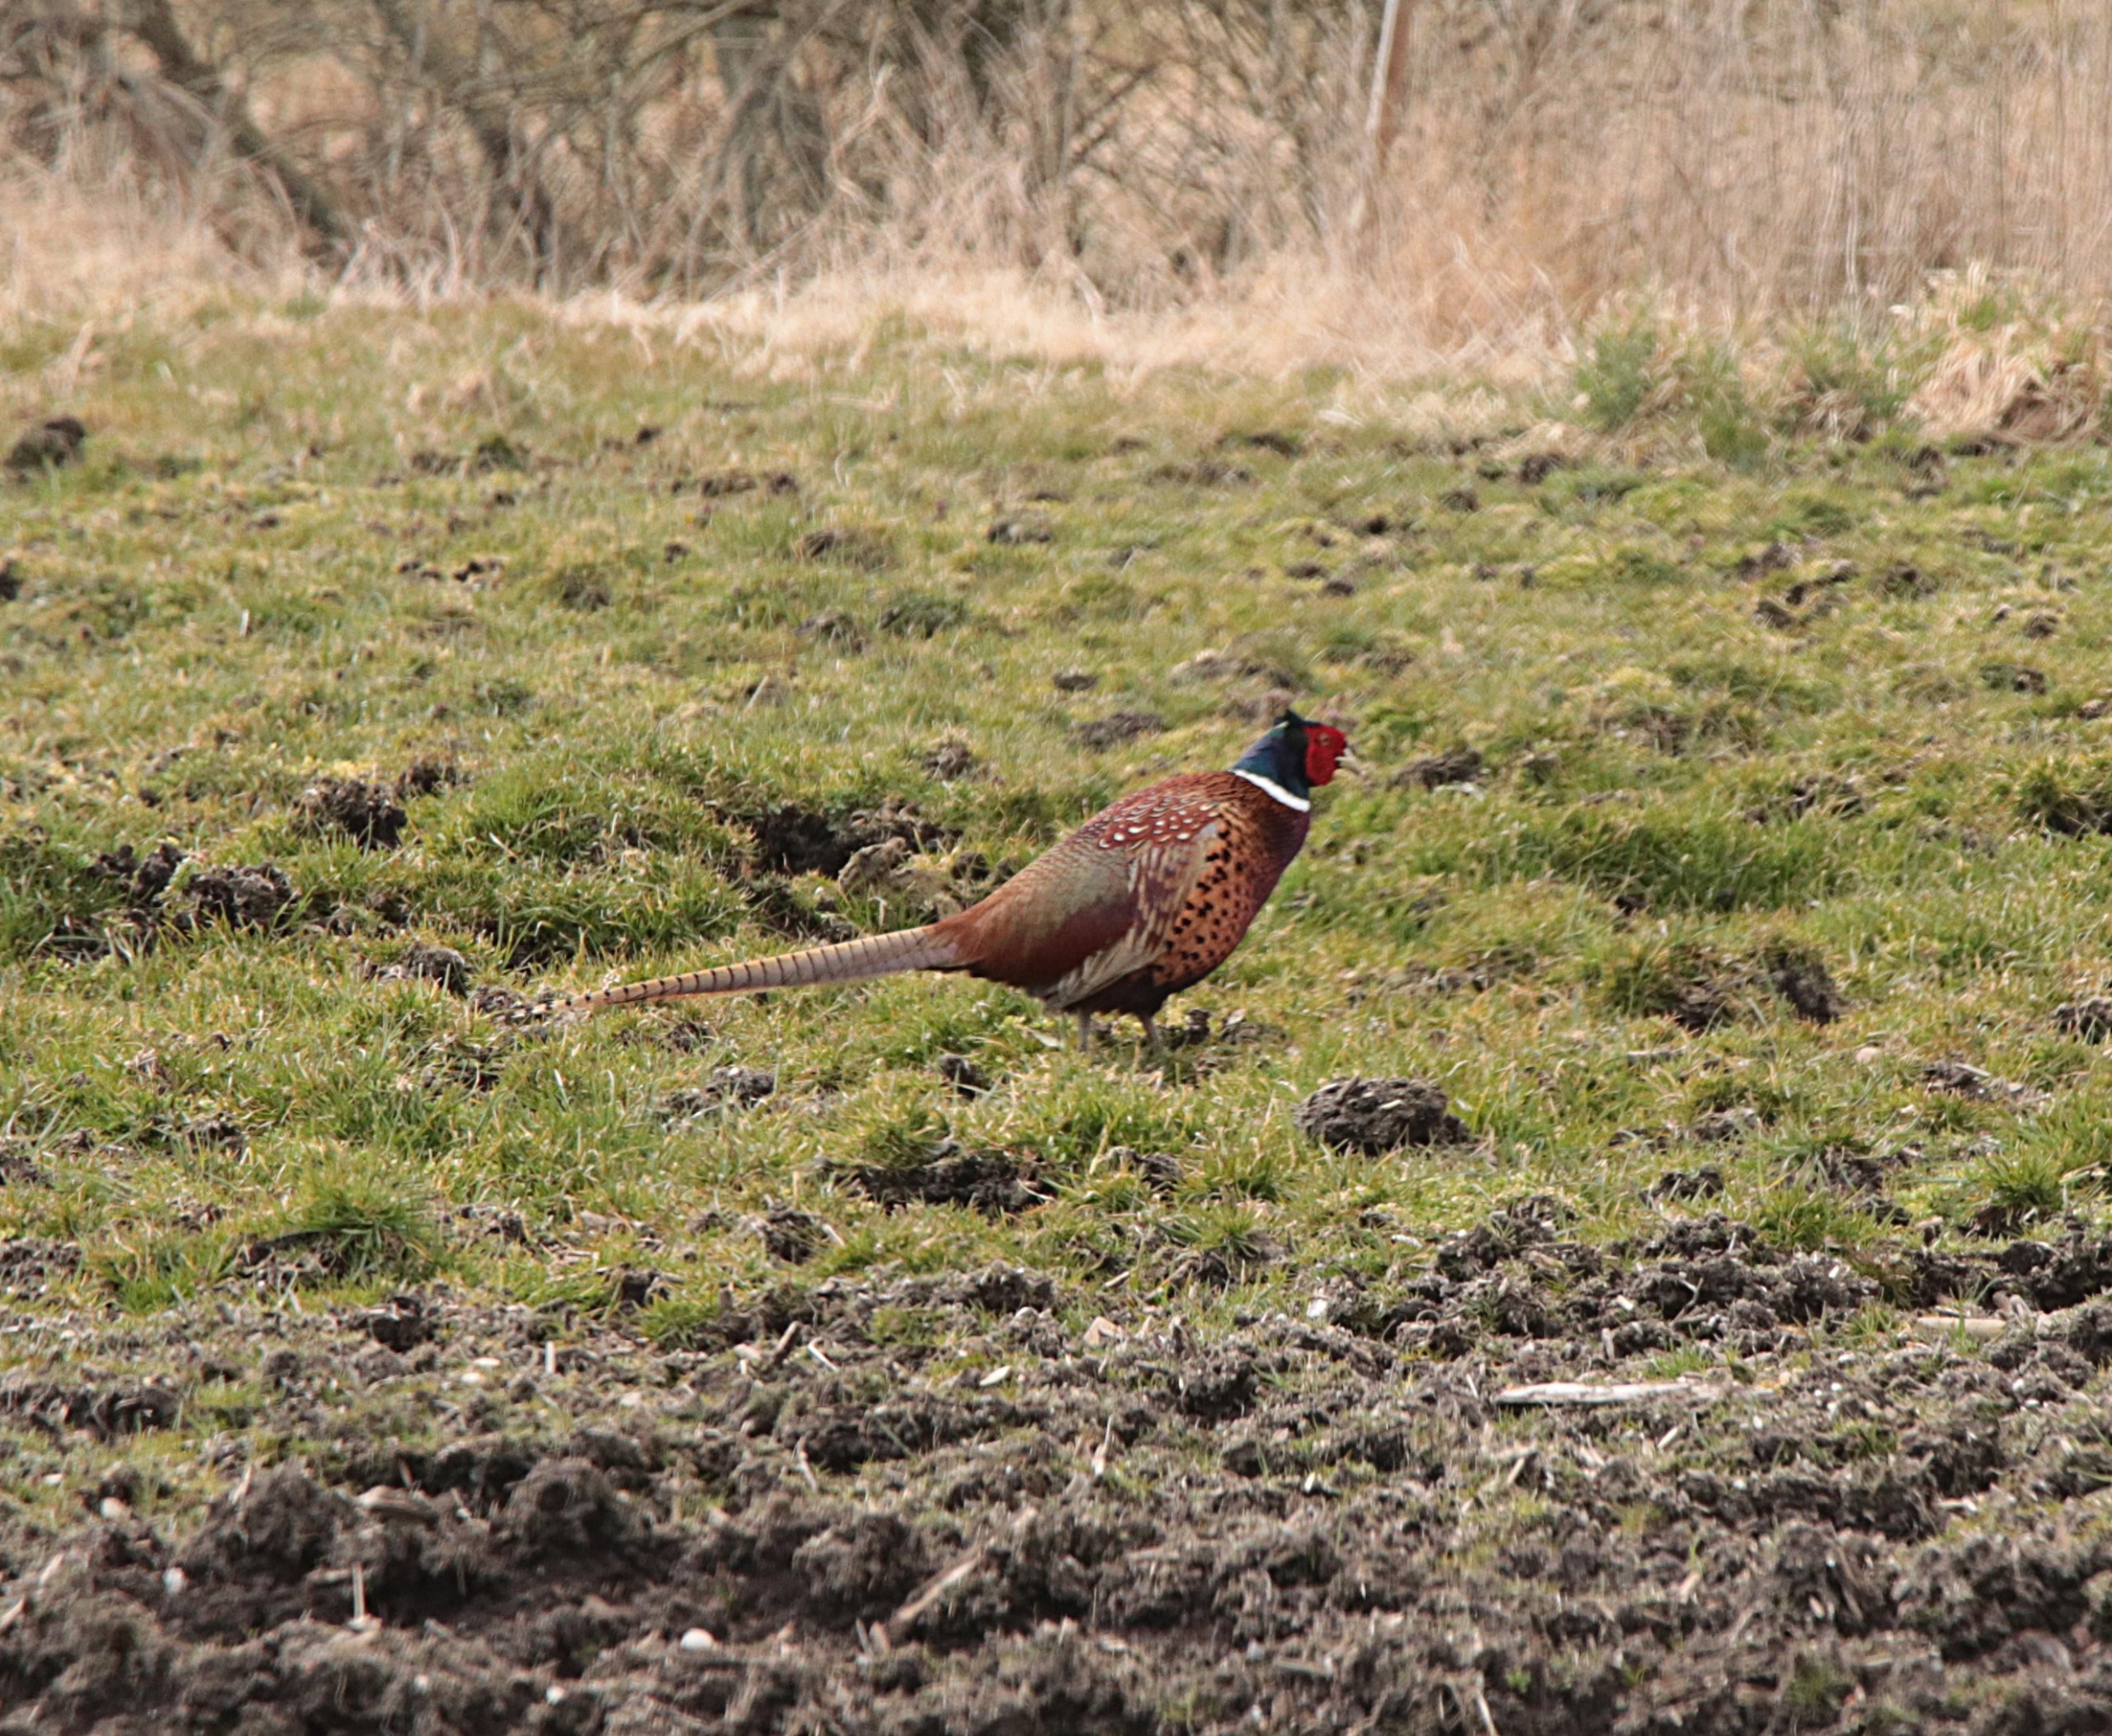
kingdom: Animalia
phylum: Chordata
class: Aves
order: Galliformes
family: Phasianidae
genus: Phasianus
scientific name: Phasianus colchicus
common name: Fasan
